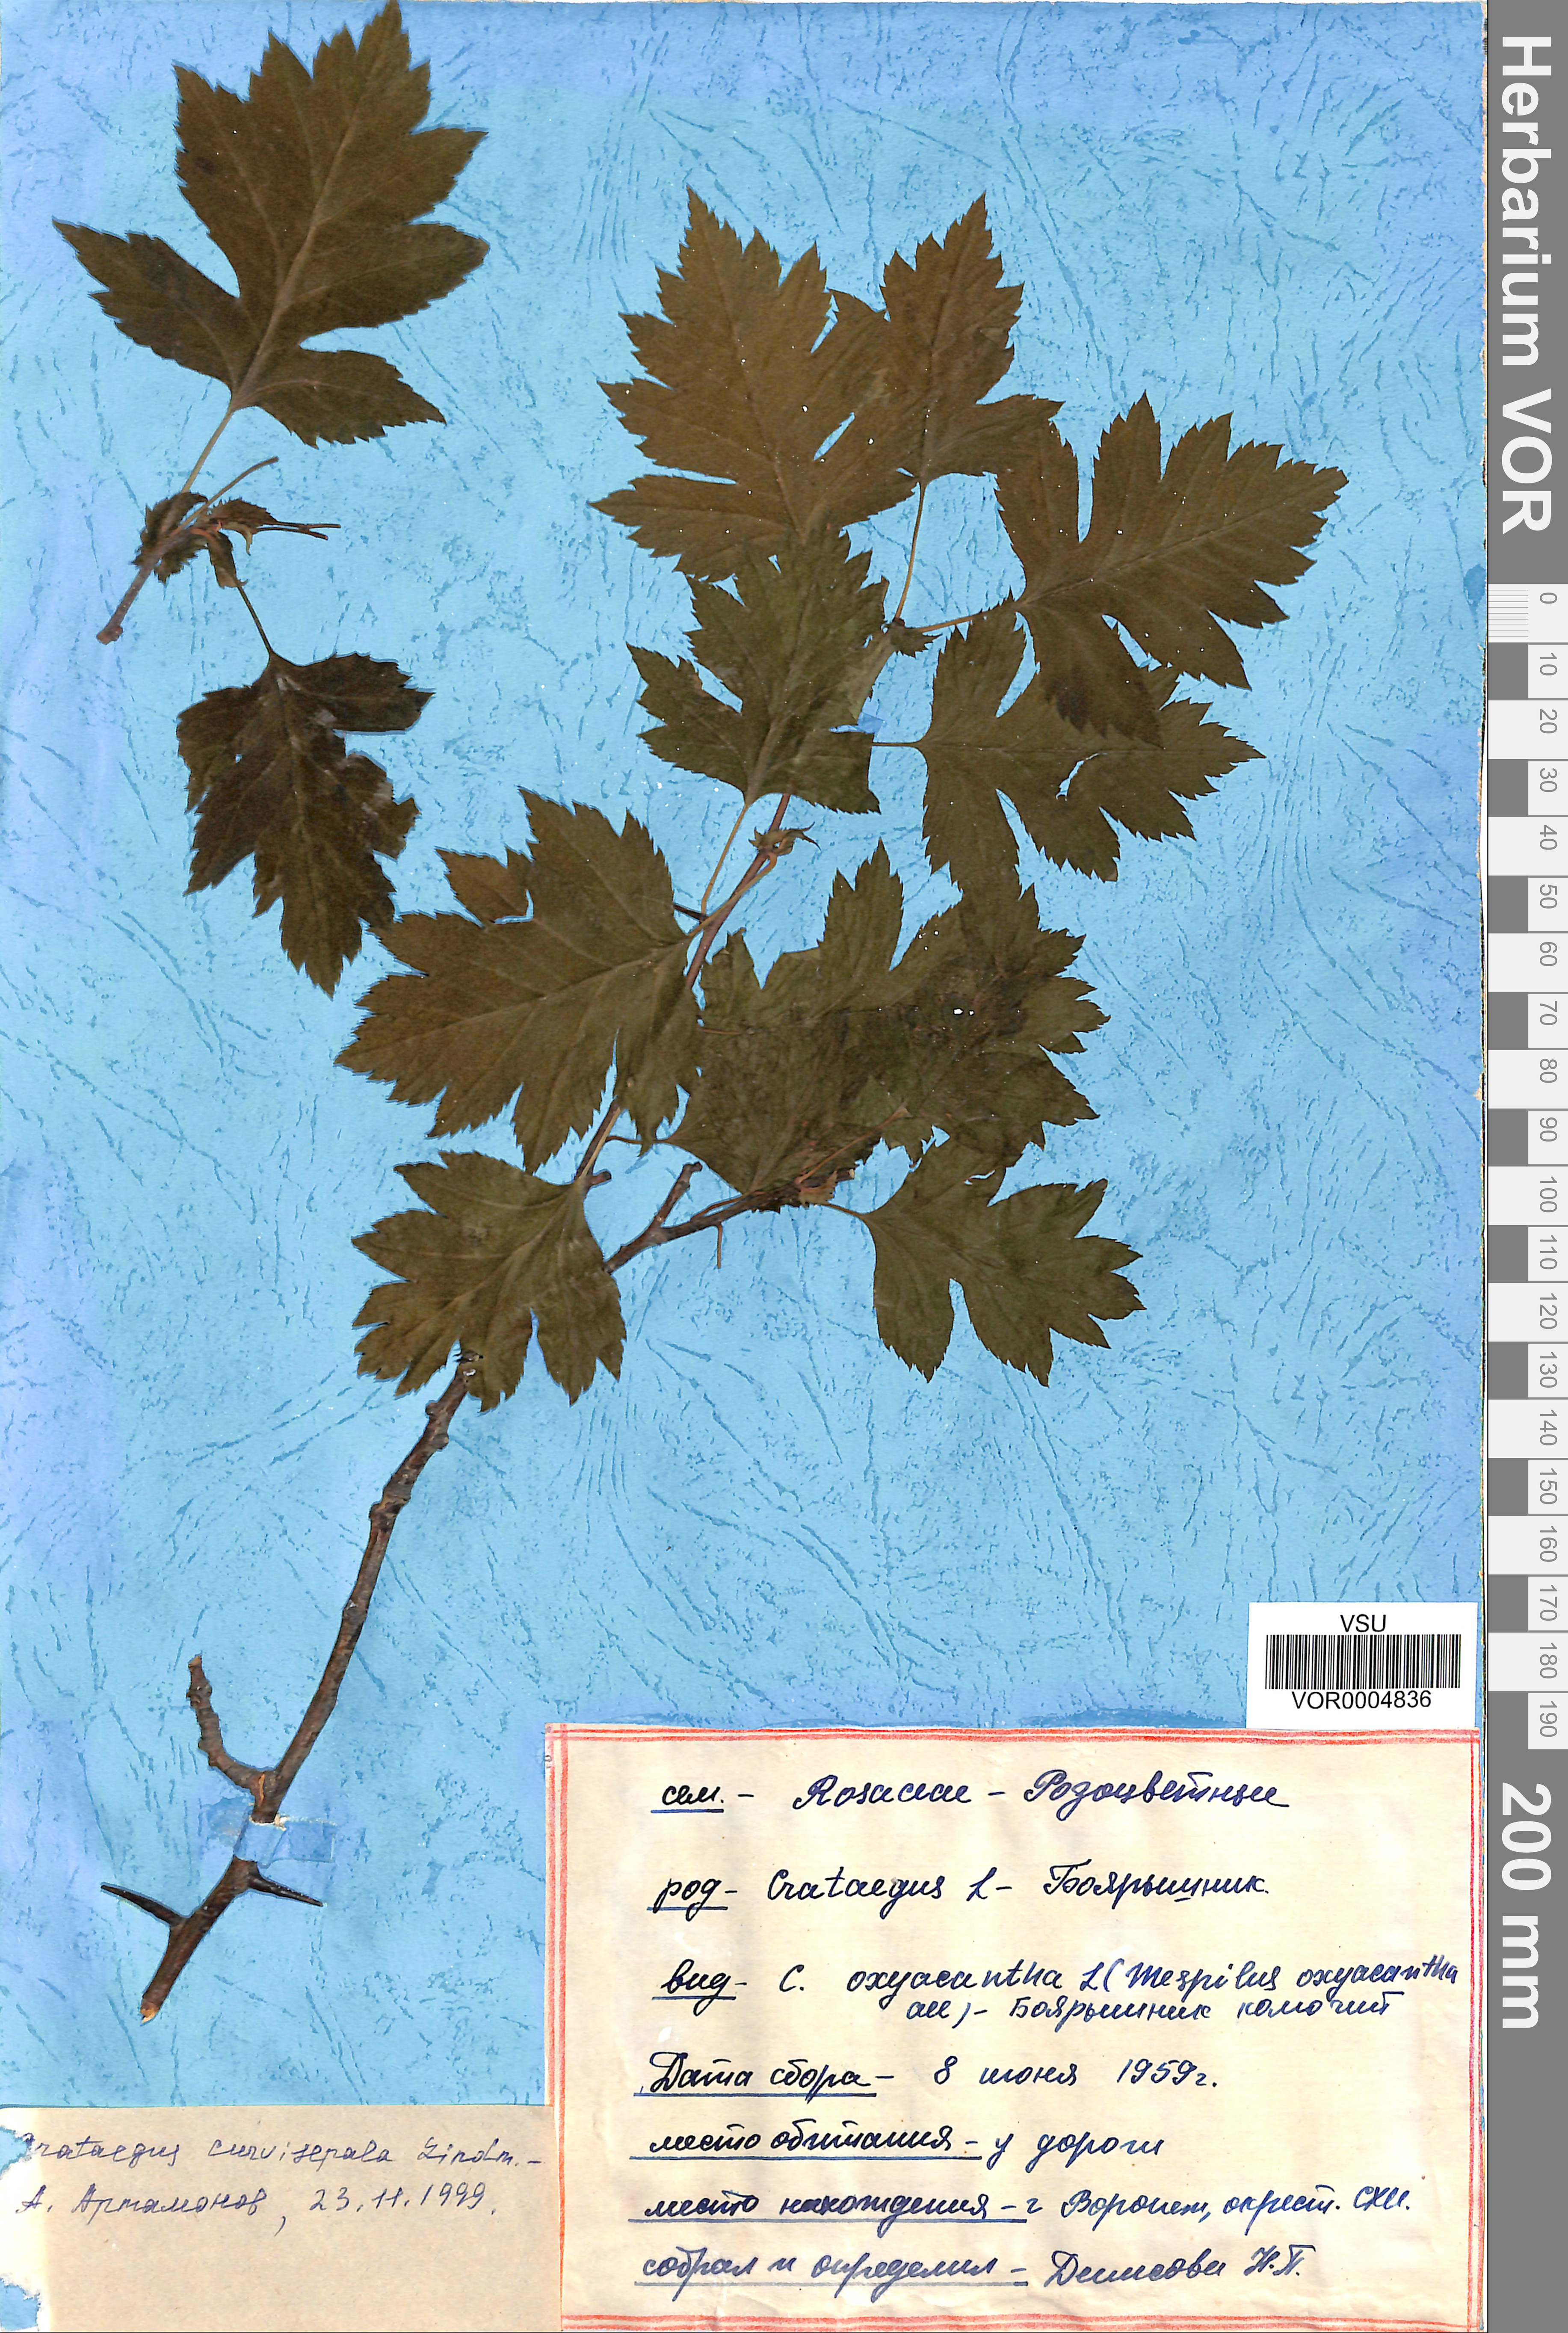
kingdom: Plantae
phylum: Tracheophyta
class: Magnoliopsida
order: Rosales
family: Rosaceae
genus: Crataegus
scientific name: Crataegus praemonticola
